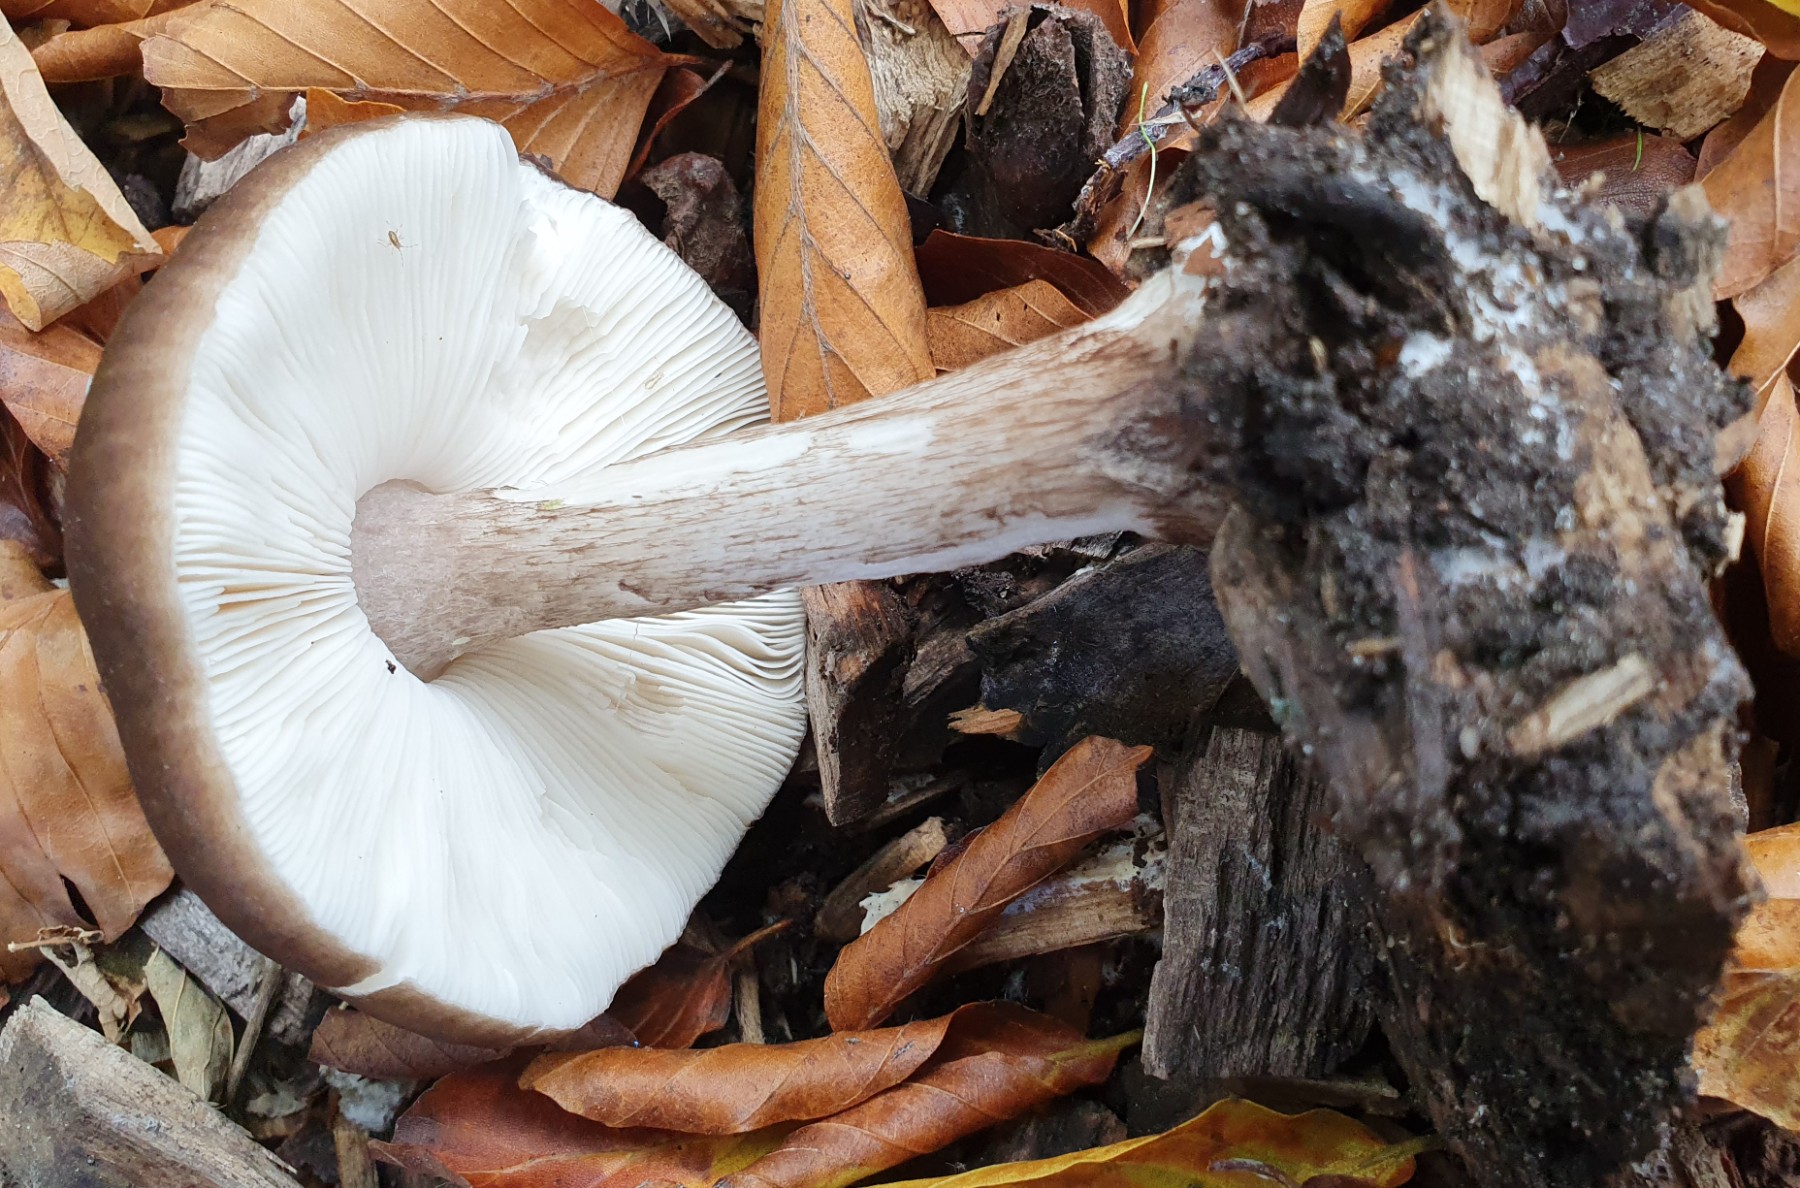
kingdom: Fungi
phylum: Basidiomycota
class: Agaricomycetes
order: Agaricales
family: Pluteaceae
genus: Pluteus
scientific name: Pluteus cervinus
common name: sodfarvet skærmhat
